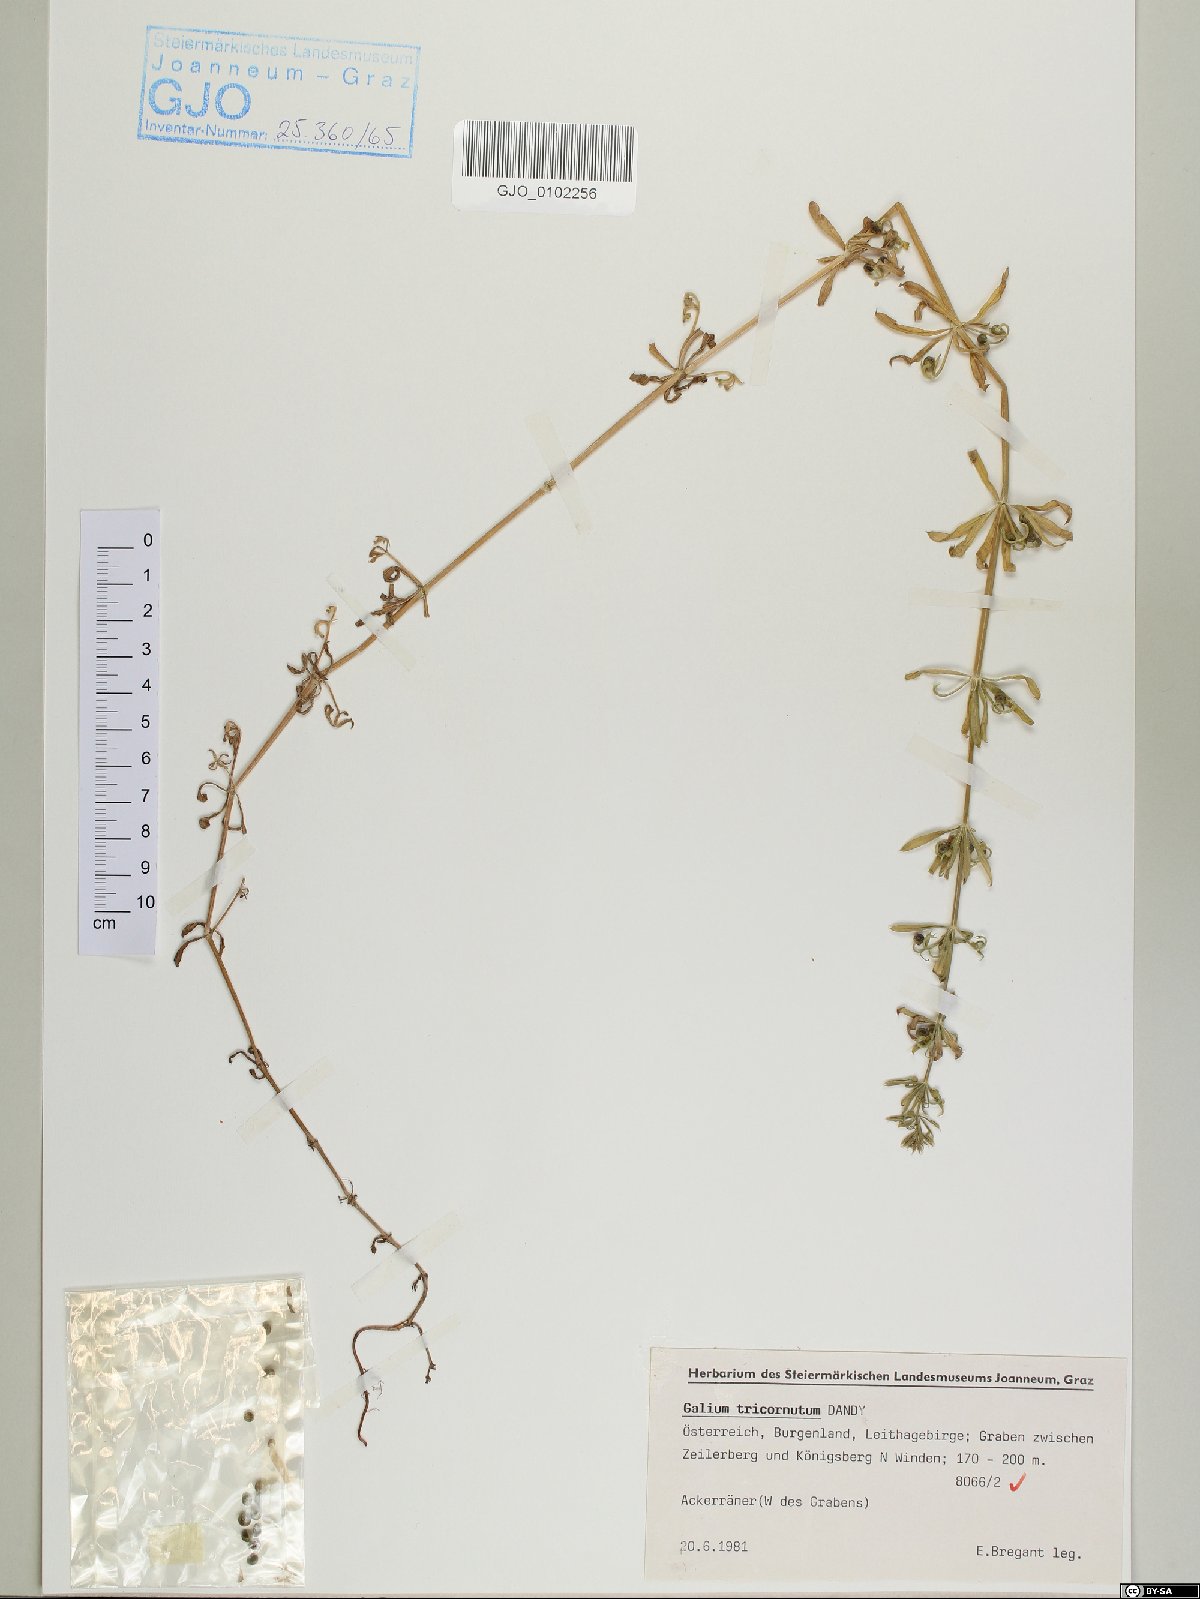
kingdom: Plantae
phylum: Tracheophyta
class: Magnoliopsida
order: Gentianales
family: Rubiaceae
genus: Galium
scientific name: Galium tricornutum
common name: Corn cleavers
